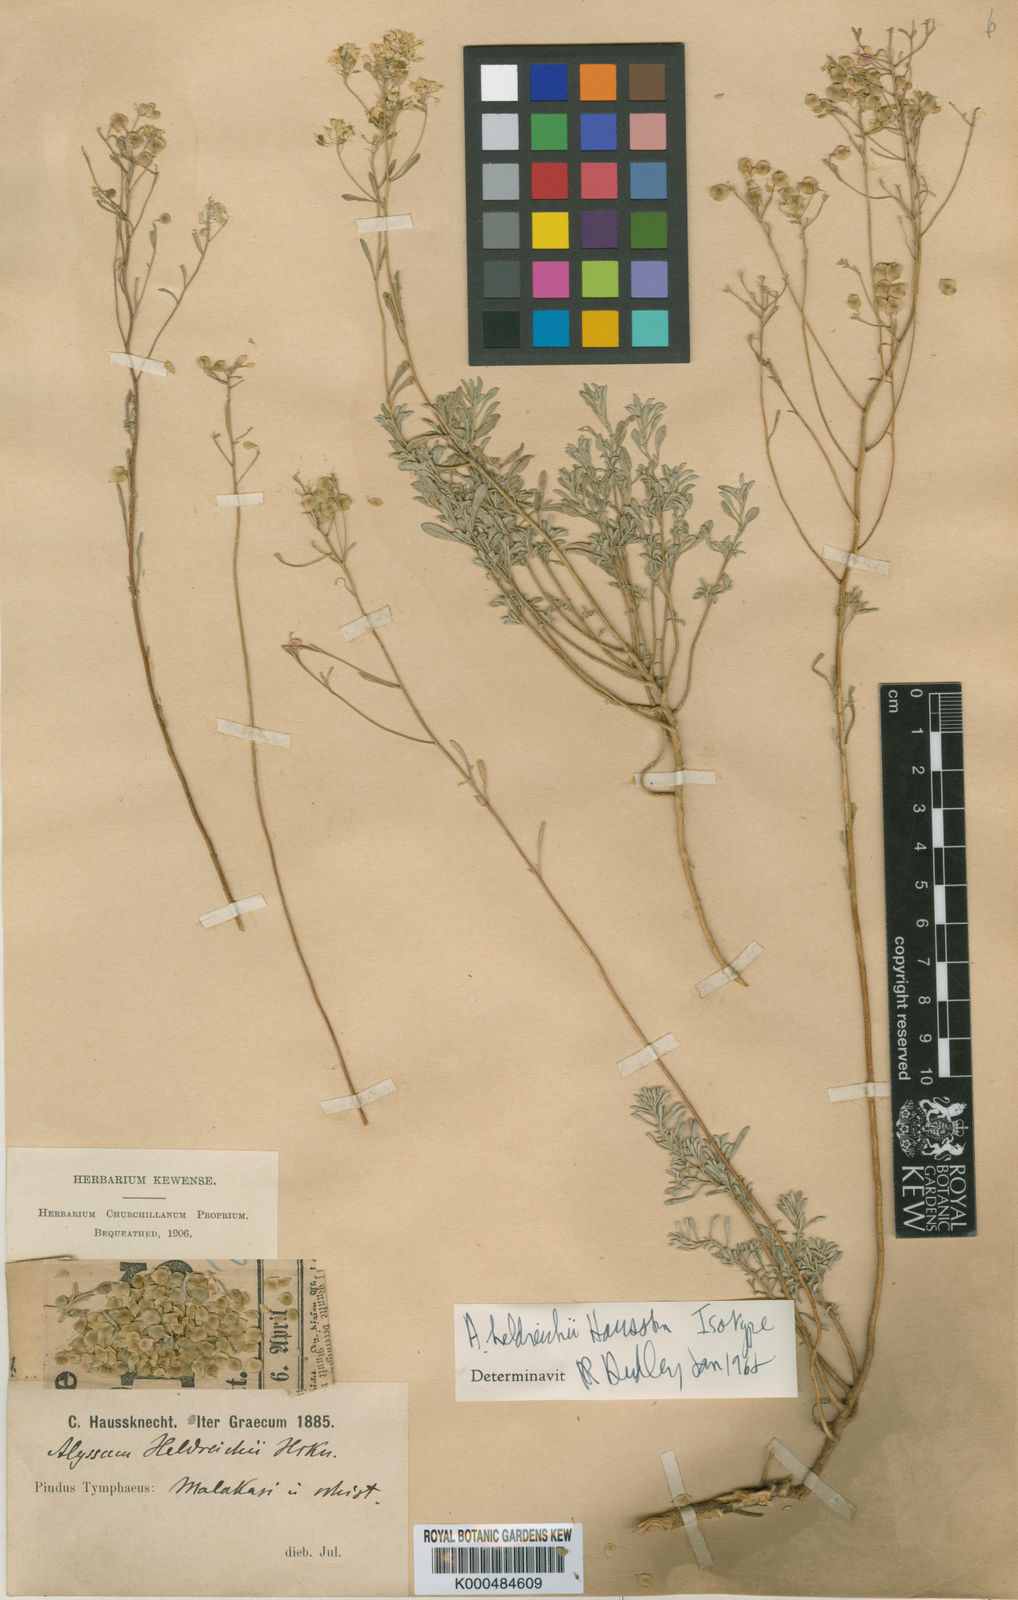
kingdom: Plantae
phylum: Tracheophyta
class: Magnoliopsida
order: Brassicales
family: Brassicaceae
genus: Odontarrhena
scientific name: Odontarrhena heldreichii
